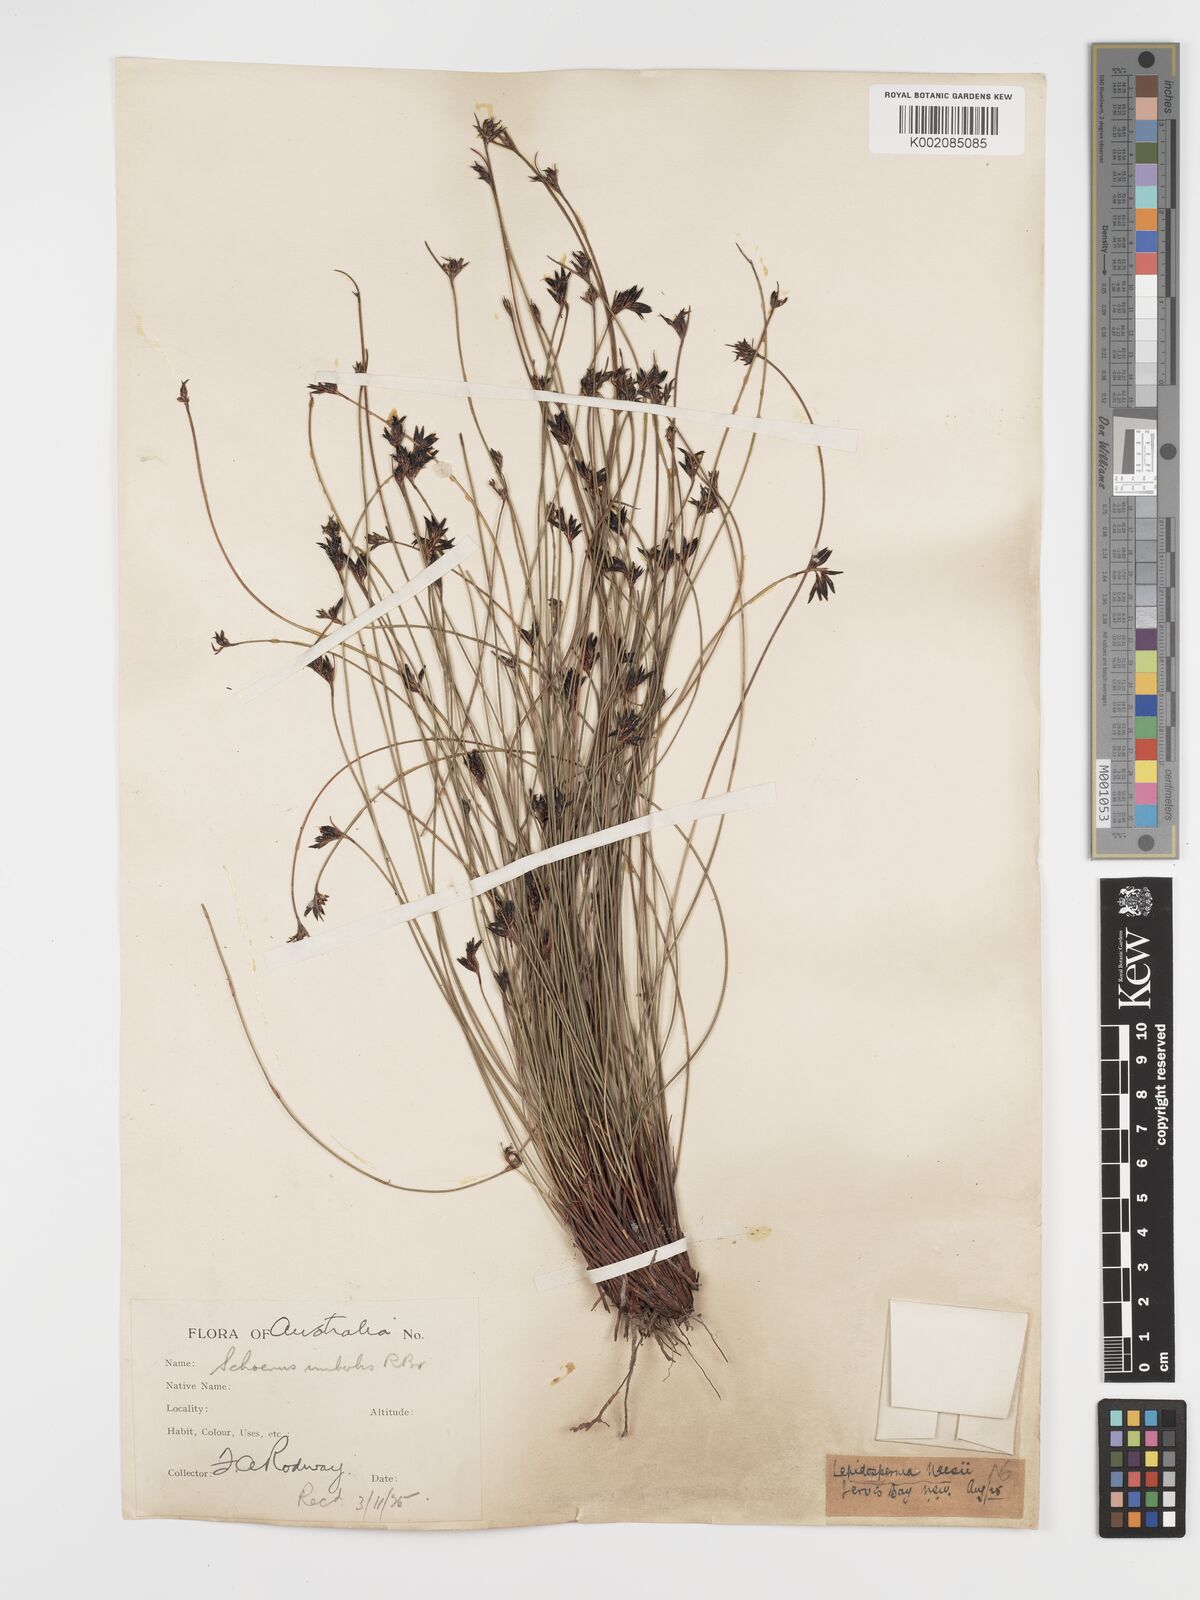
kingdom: Plantae
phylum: Tracheophyta
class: Liliopsida
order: Poales
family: Cyperaceae
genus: Schoenus
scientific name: Schoenus imberbis
